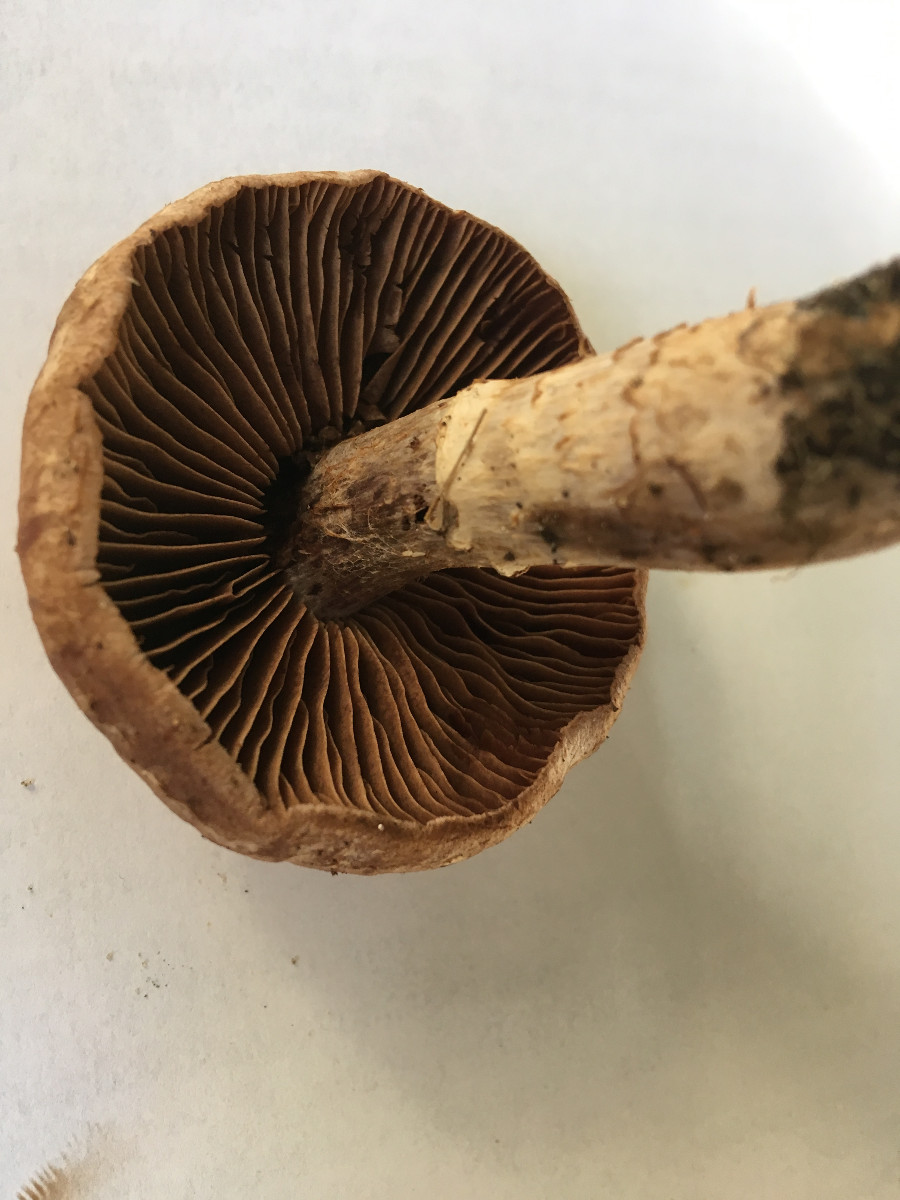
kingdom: Fungi
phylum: Basidiomycota
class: Agaricomycetes
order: Agaricales
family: Cortinariaceae
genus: Cortinarius
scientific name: Cortinarius hinnuleus
